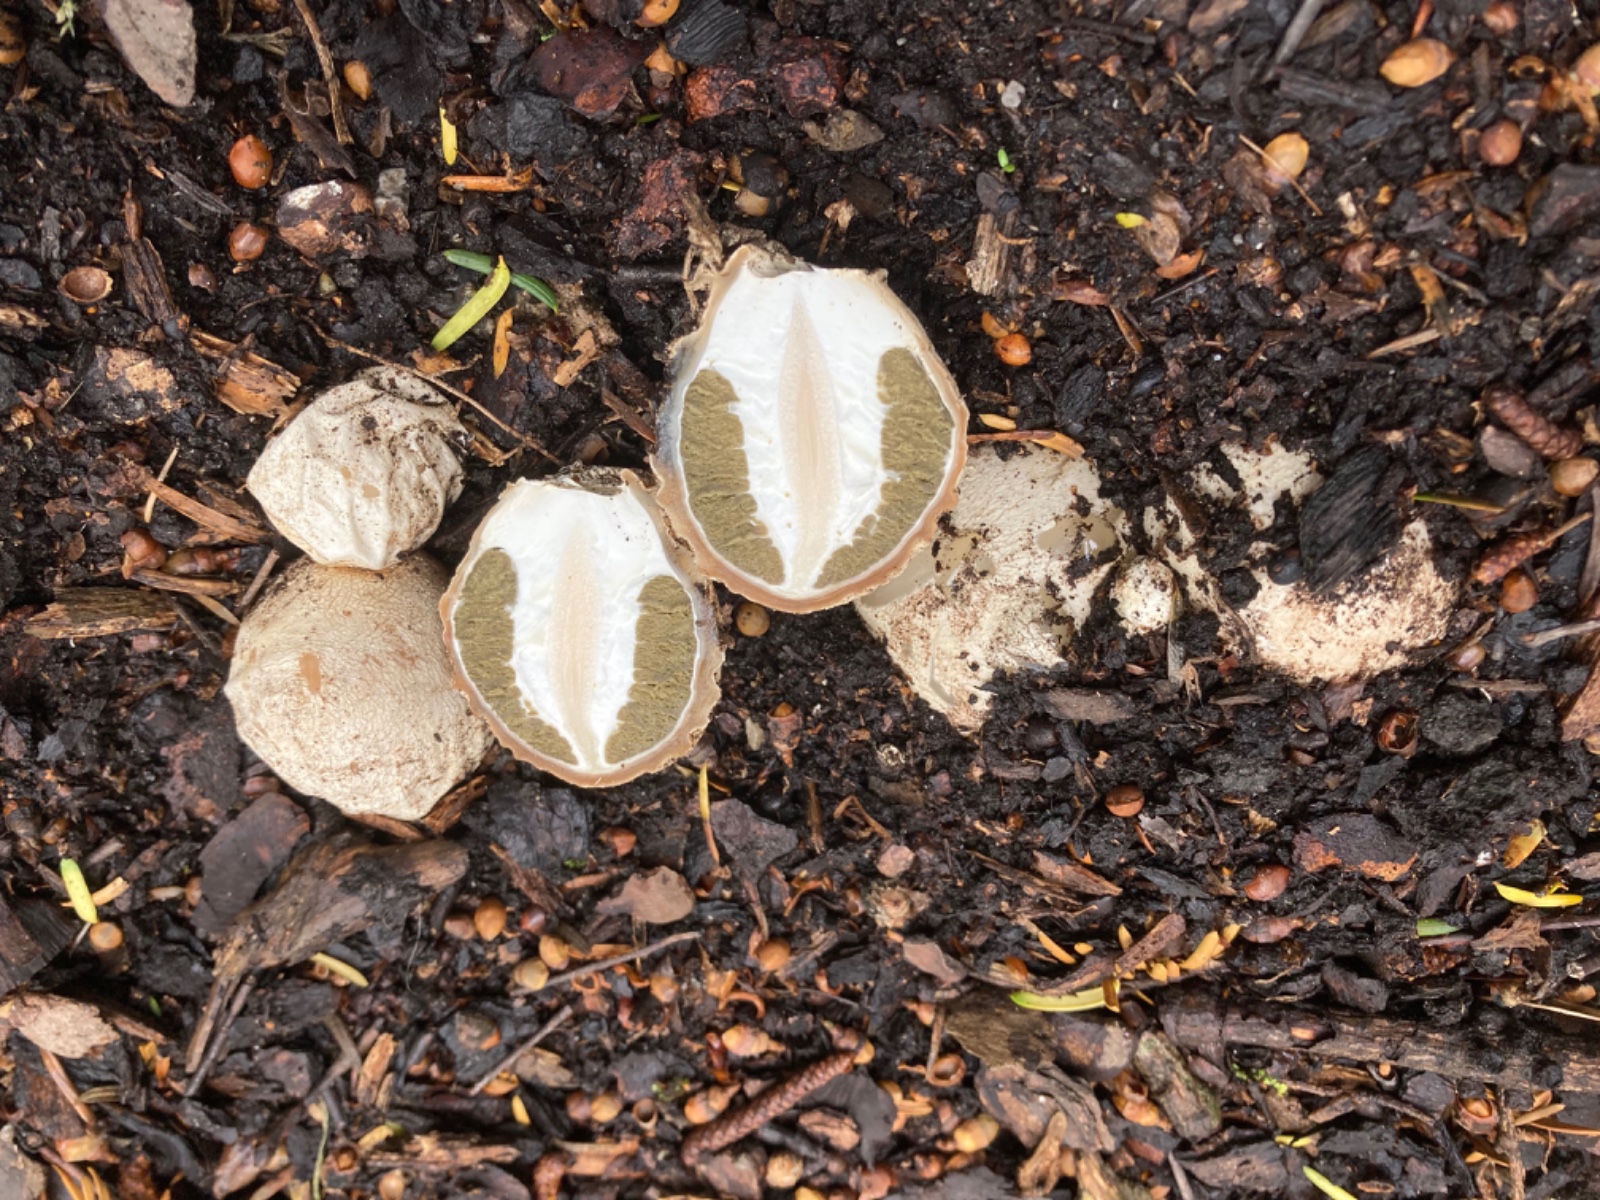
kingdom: Fungi
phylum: Basidiomycota
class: Agaricomycetes
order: Phallales
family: Phallaceae
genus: Phallus
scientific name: Phallus impudicus
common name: almindelig stinksvamp
